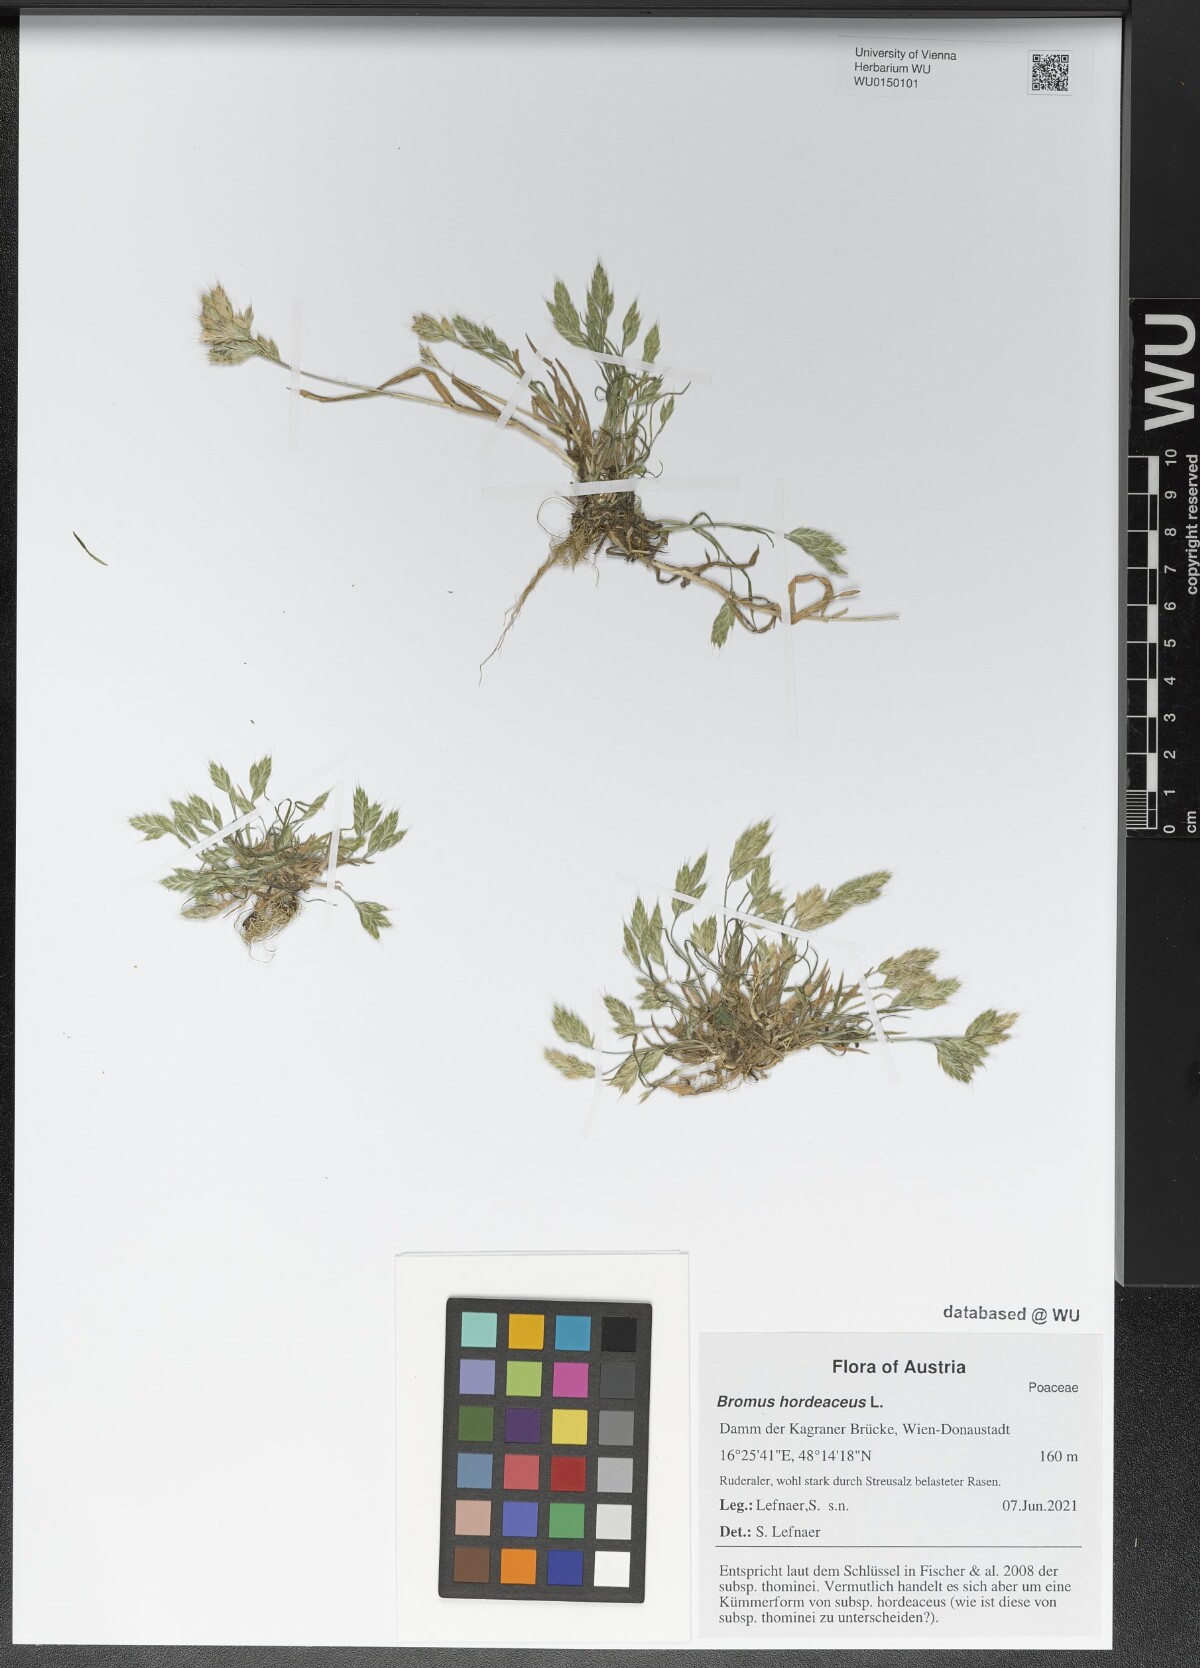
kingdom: Plantae
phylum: Tracheophyta
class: Liliopsida
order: Poales
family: Poaceae
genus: Bromus
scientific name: Bromus hordeaceus
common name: Soft brome
